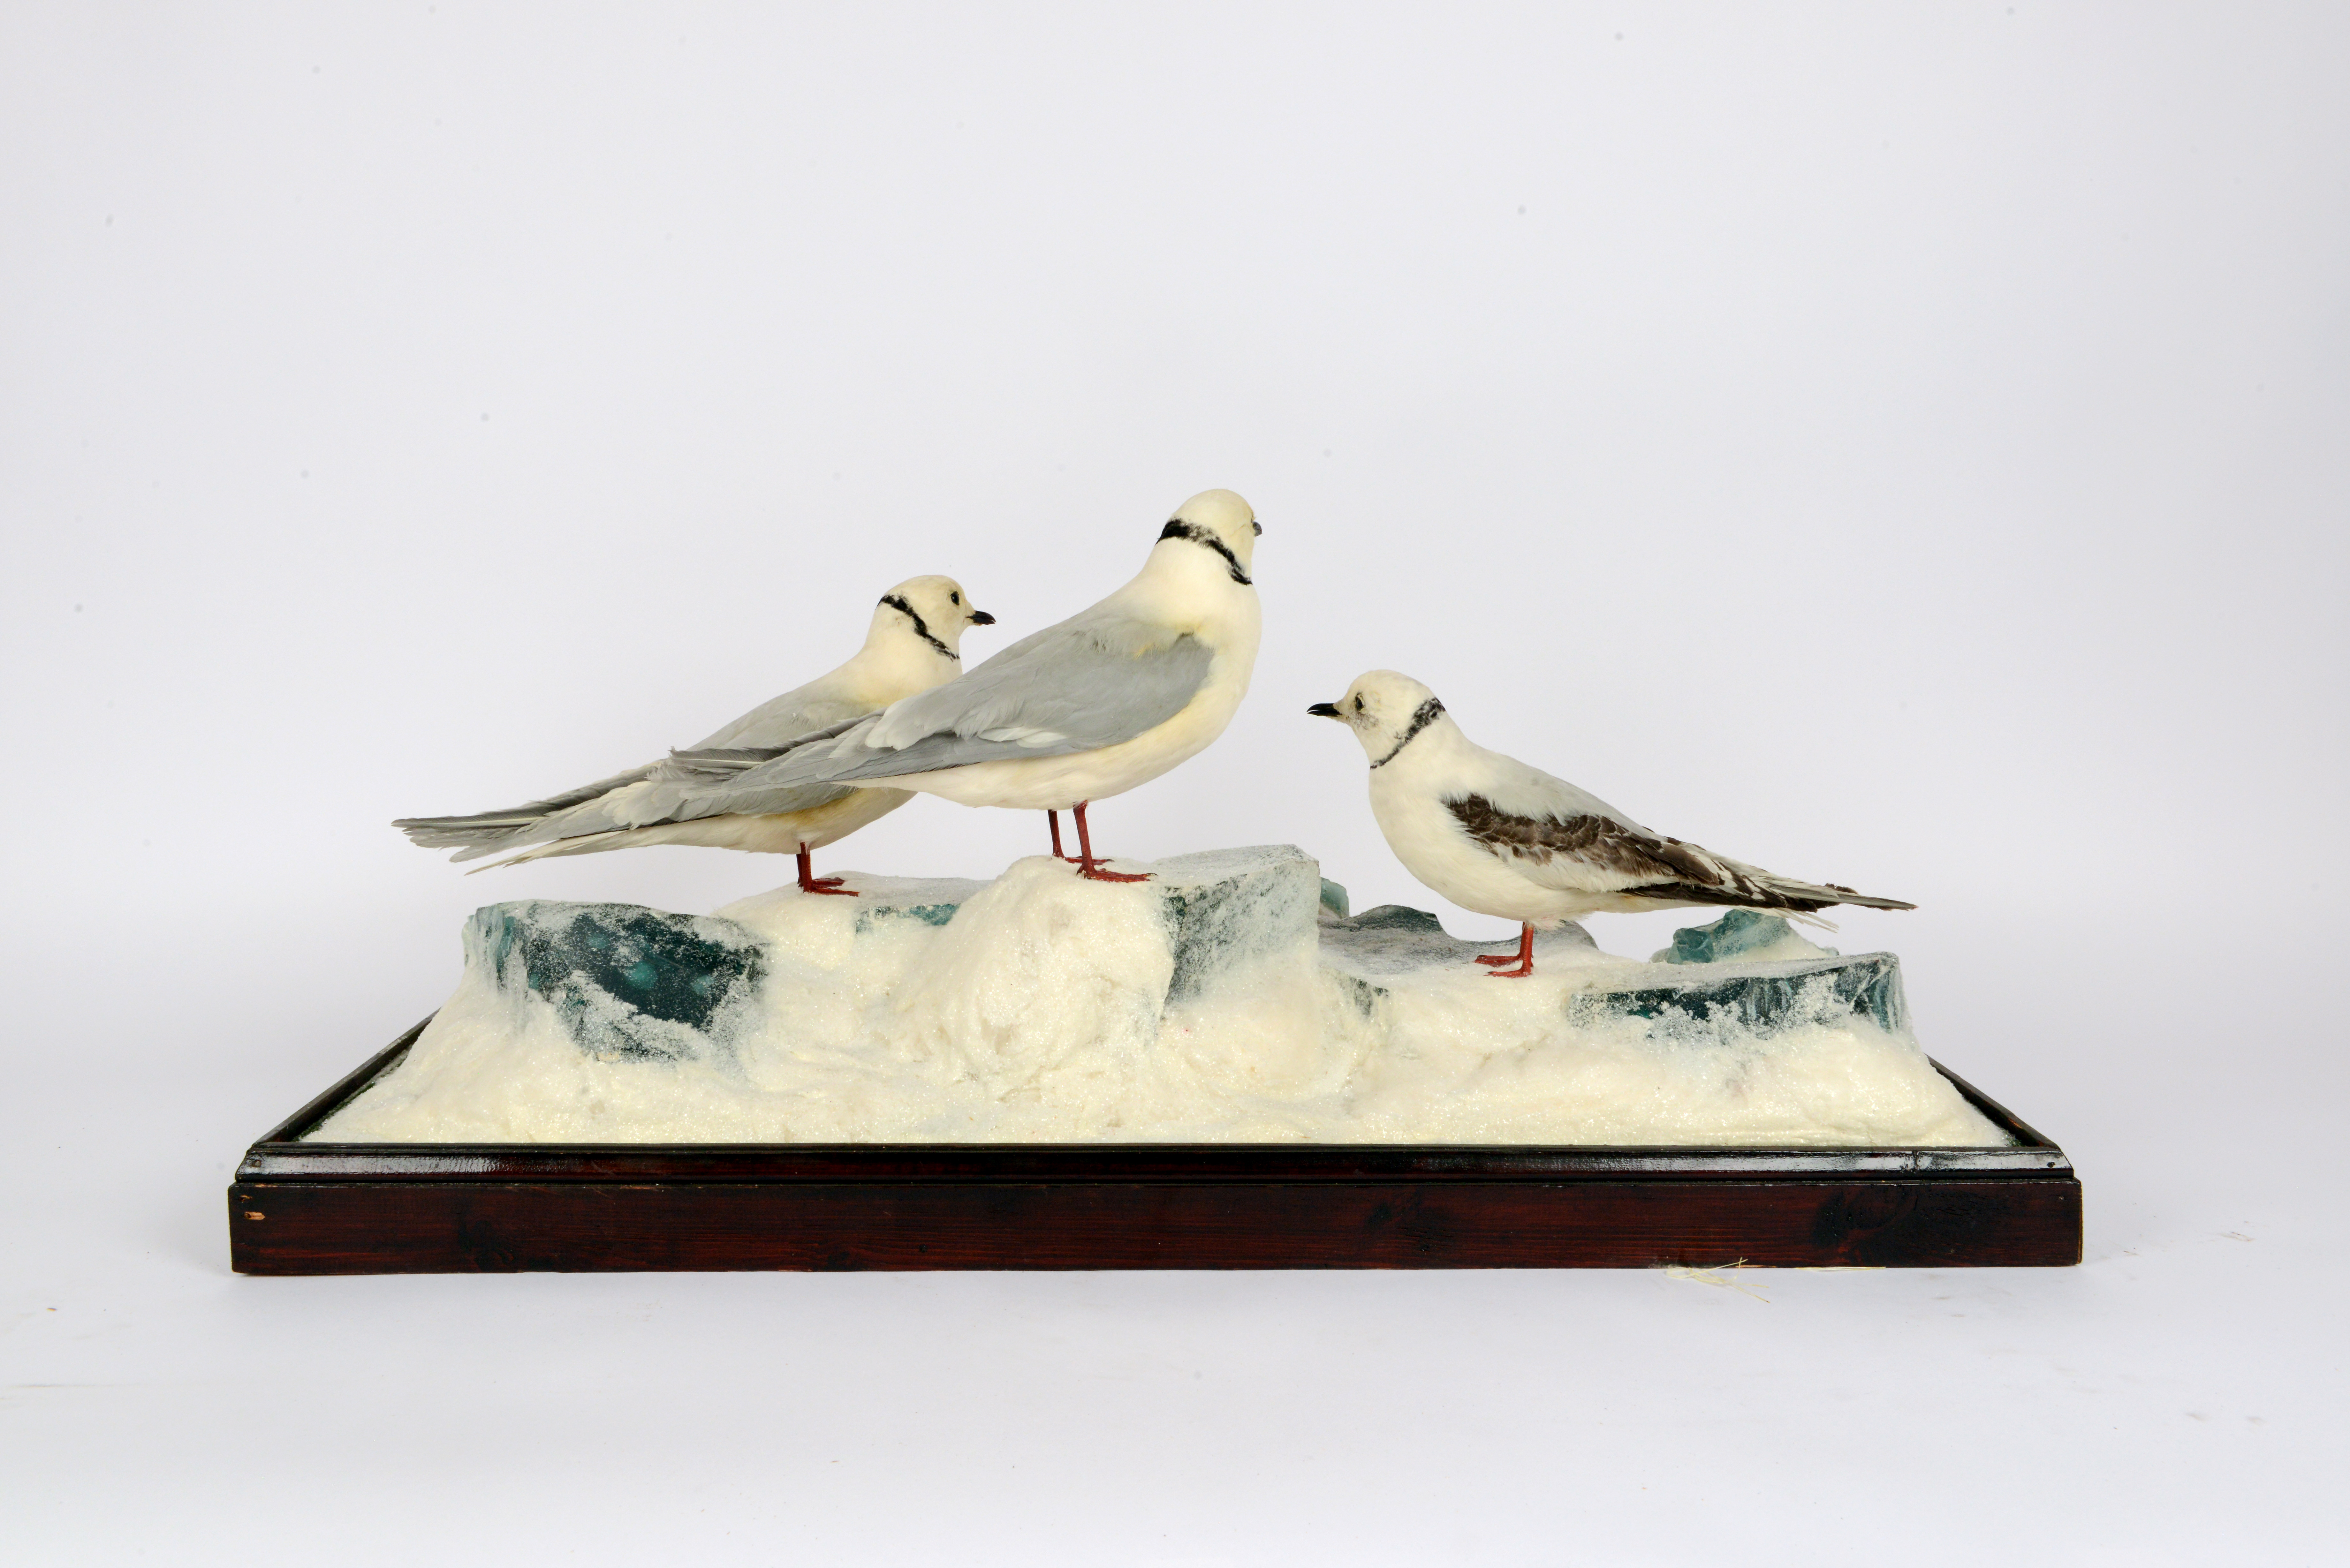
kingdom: Animalia
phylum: Chordata
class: Aves
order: Charadriiformes
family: Laridae
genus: Rhodostethia
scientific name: Rhodostethia rosea
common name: Ross's gull
